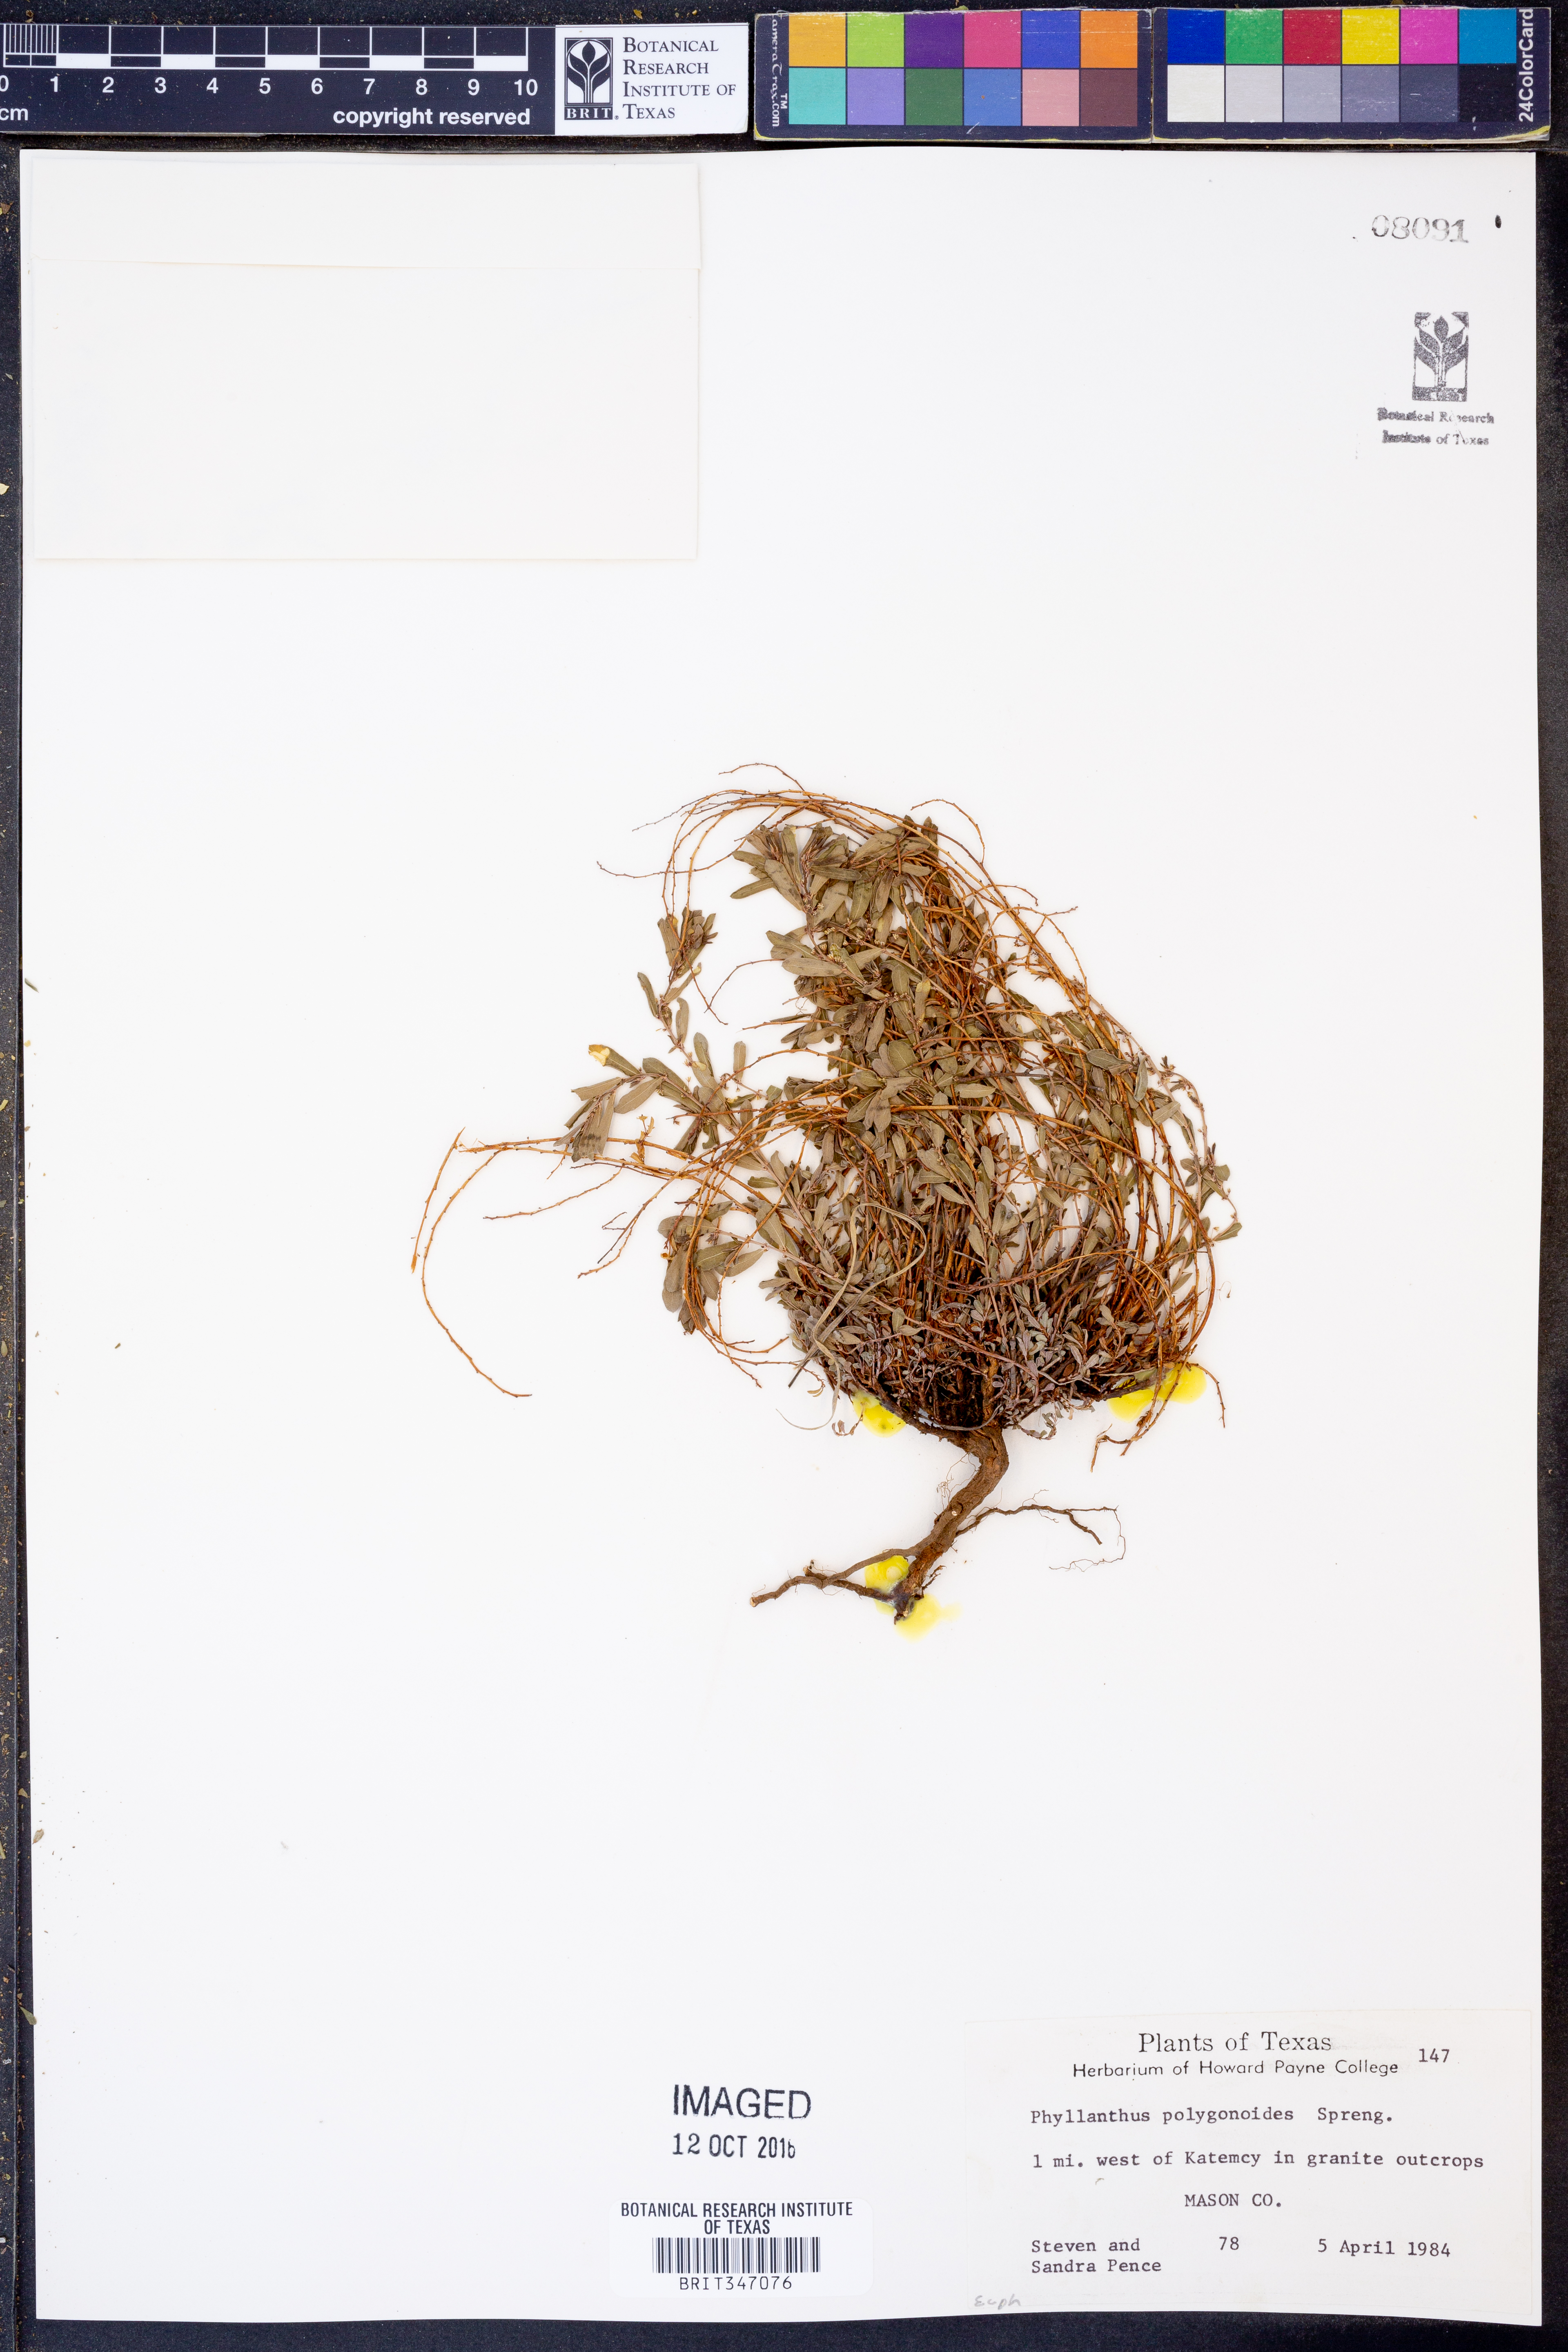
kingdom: Plantae
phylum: Tracheophyta
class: Magnoliopsida
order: Malpighiales
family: Phyllanthaceae
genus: Phyllanthus
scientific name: Phyllanthus polygonoides
